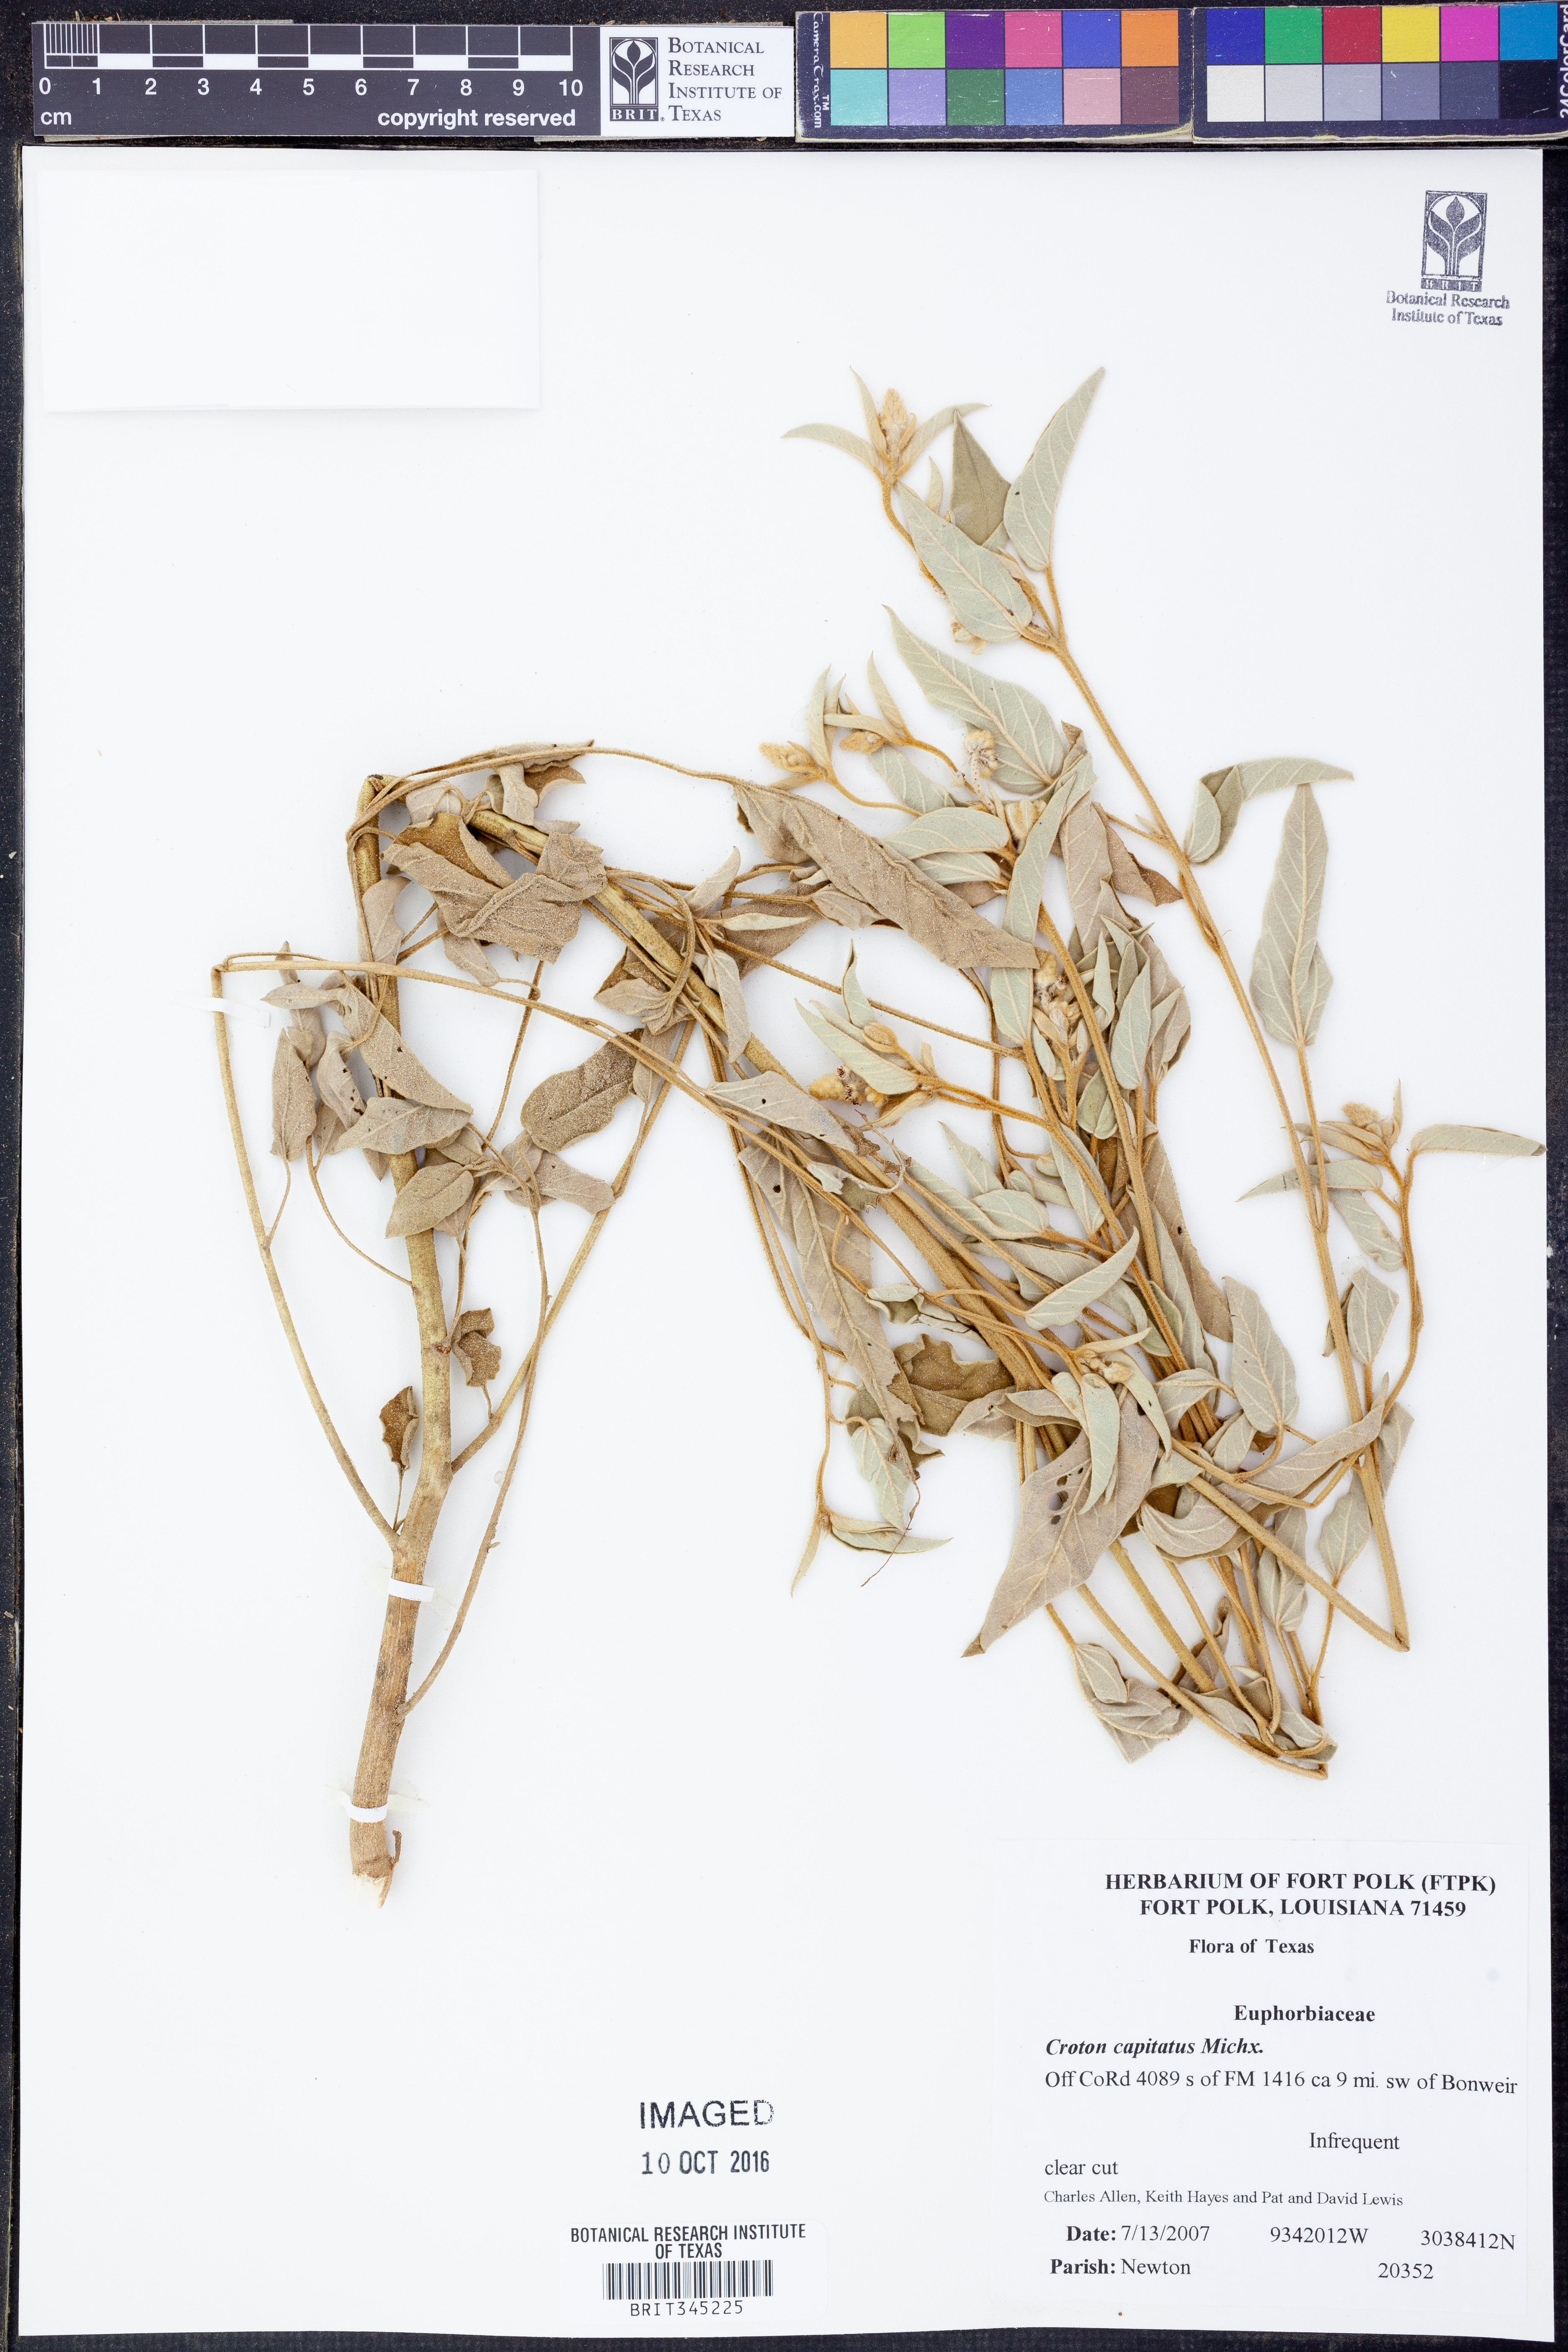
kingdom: Plantae
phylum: Tracheophyta
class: Magnoliopsida
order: Malpighiales
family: Euphorbiaceae
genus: Croton
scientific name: Croton capitatus
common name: Woolly croton
